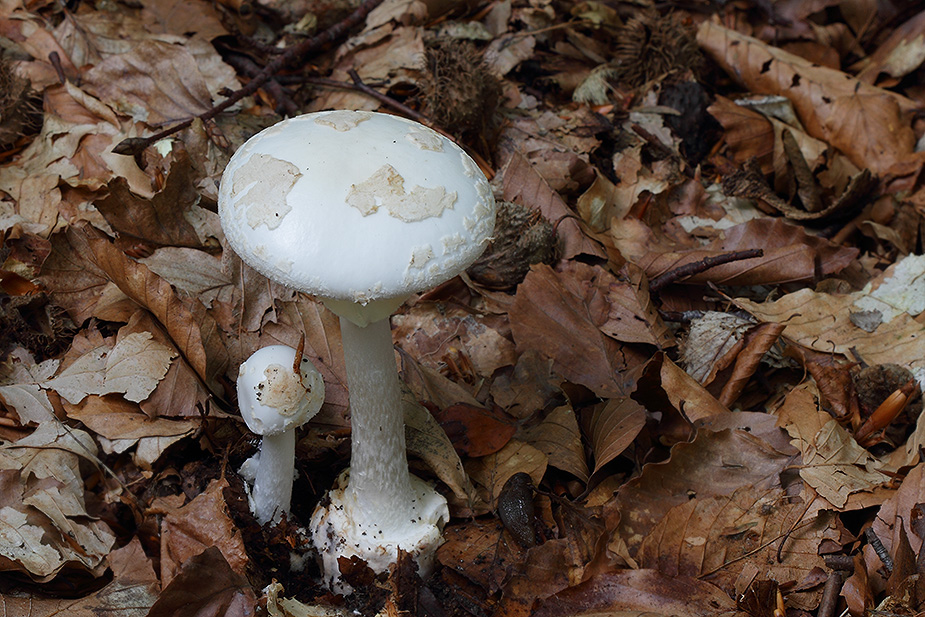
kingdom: Fungi
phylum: Basidiomycota
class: Agaricomycetes
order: Agaricales
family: Amanitaceae
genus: Amanita
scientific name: Amanita citrina
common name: False death-cap
